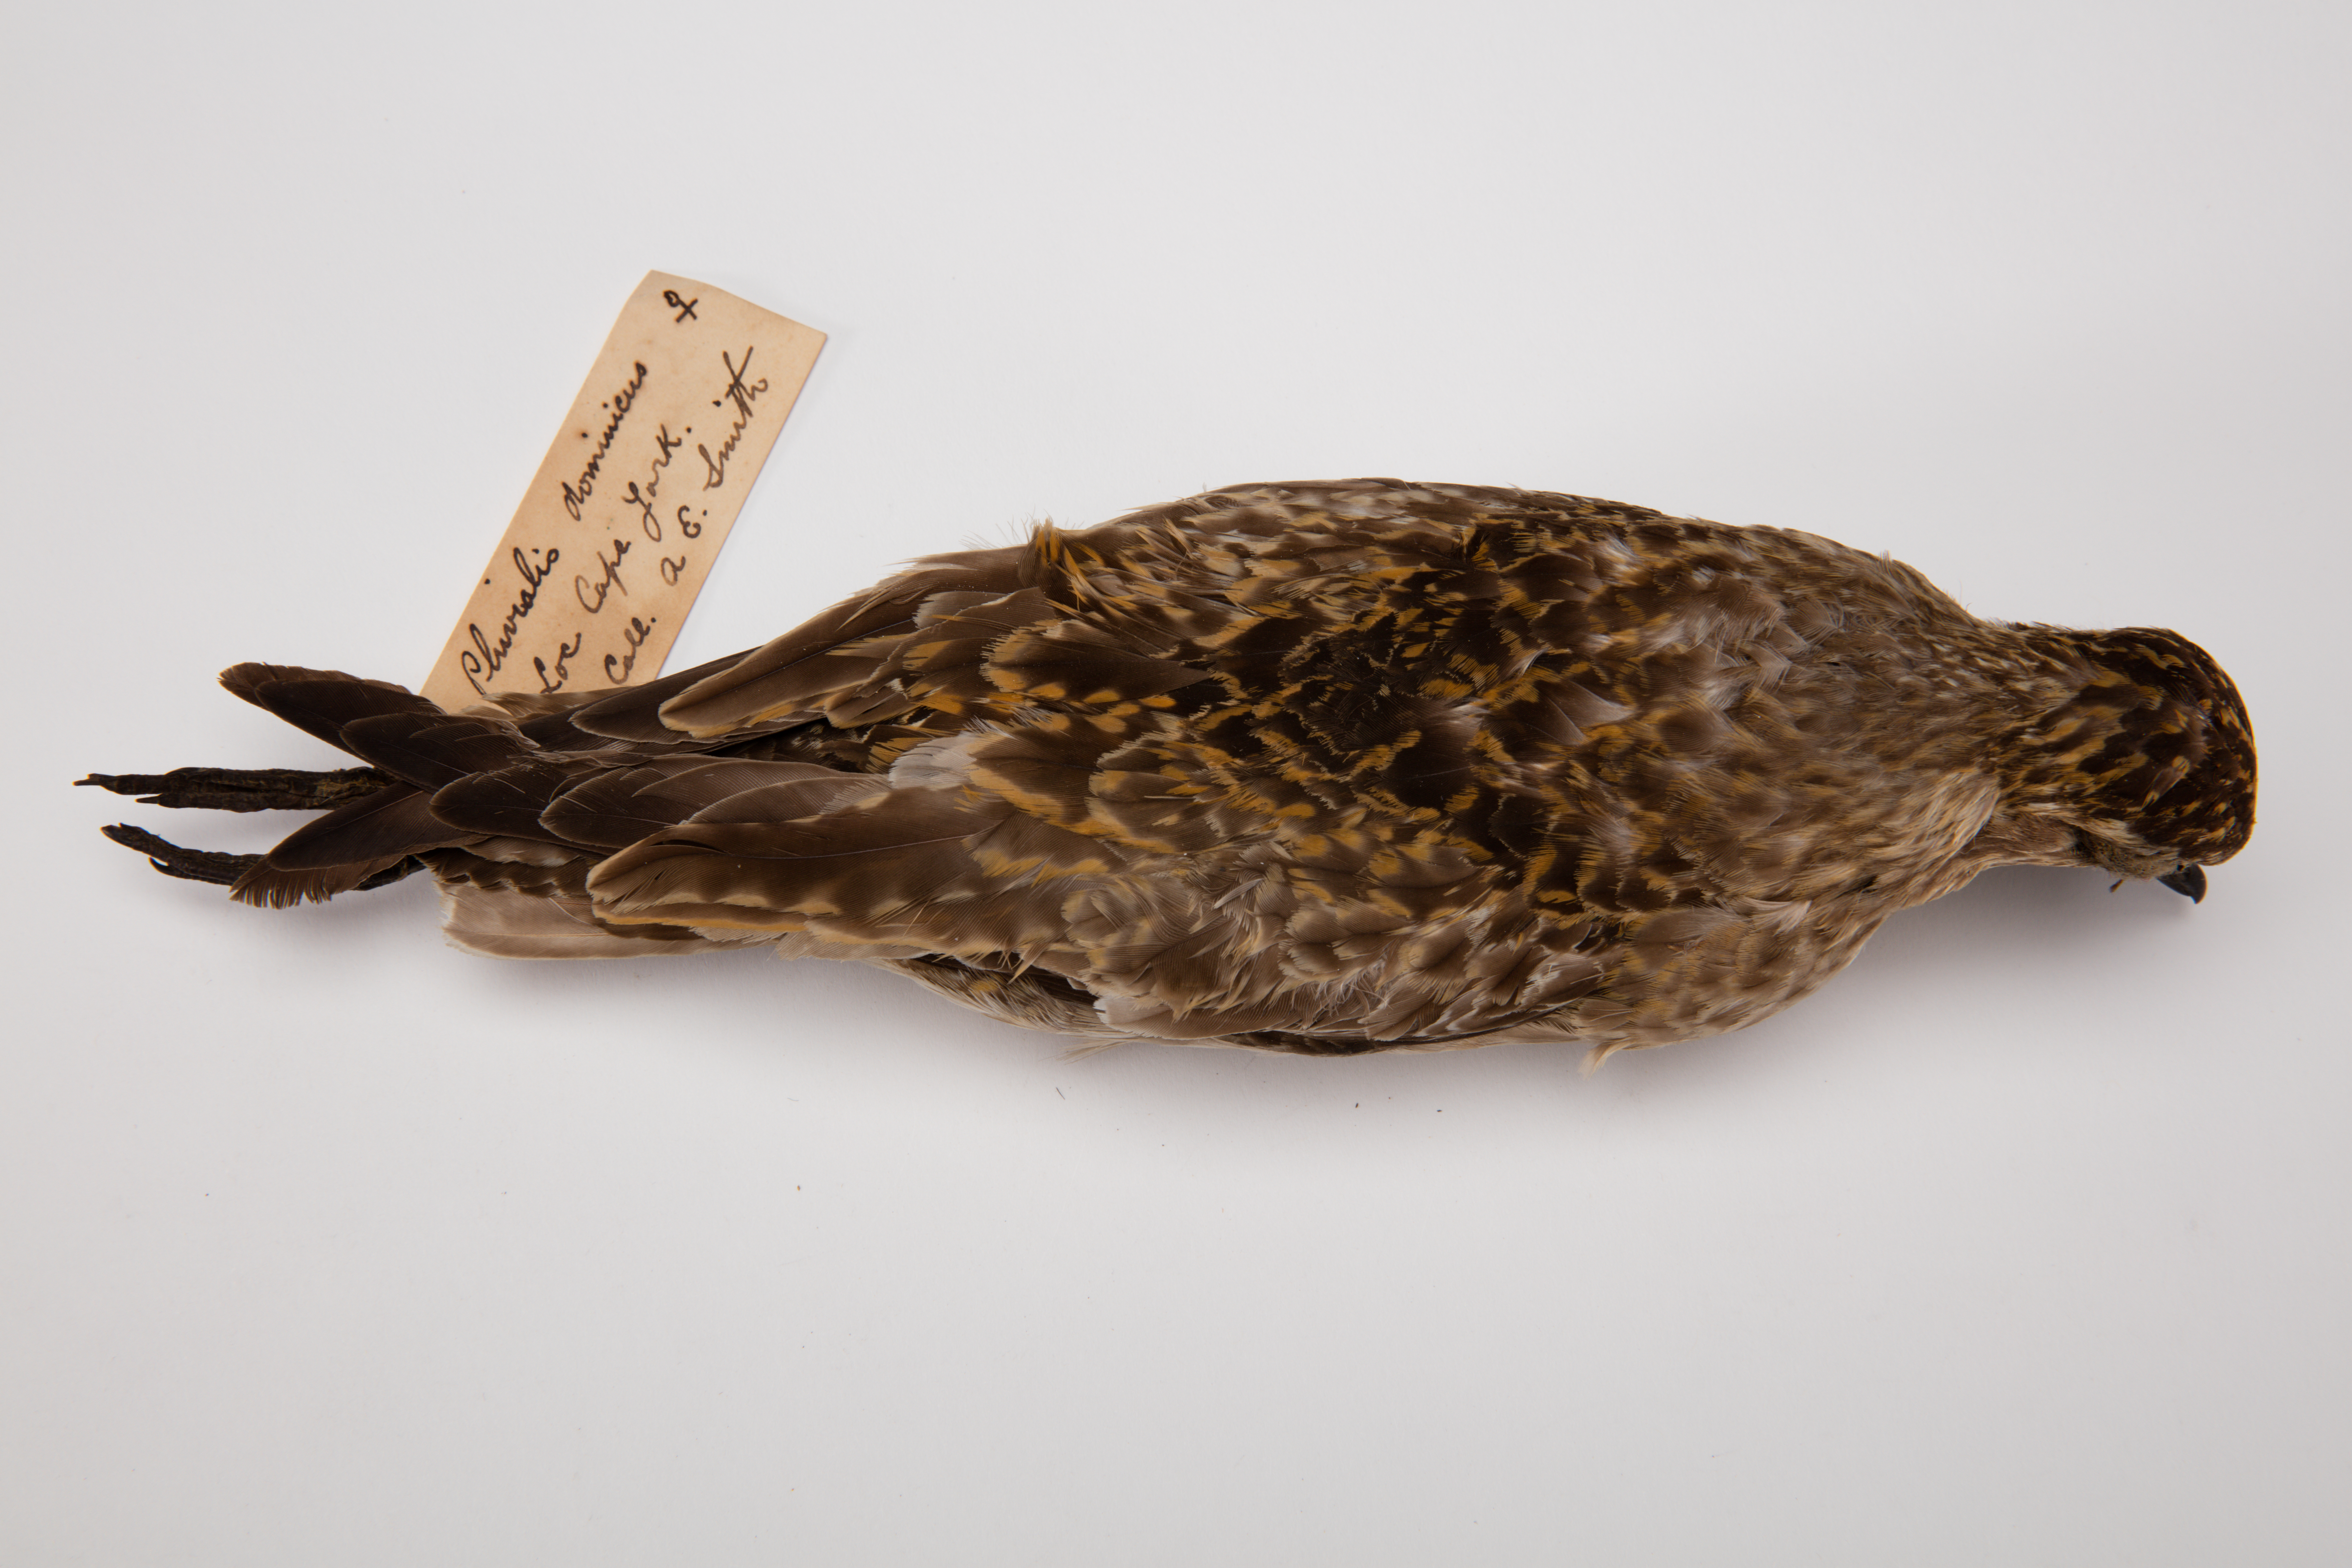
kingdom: Animalia
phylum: Chordata
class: Aves
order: Charadriiformes
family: Charadriidae
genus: Pluvialis
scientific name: Pluvialis fulva
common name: Pacific golden plover
